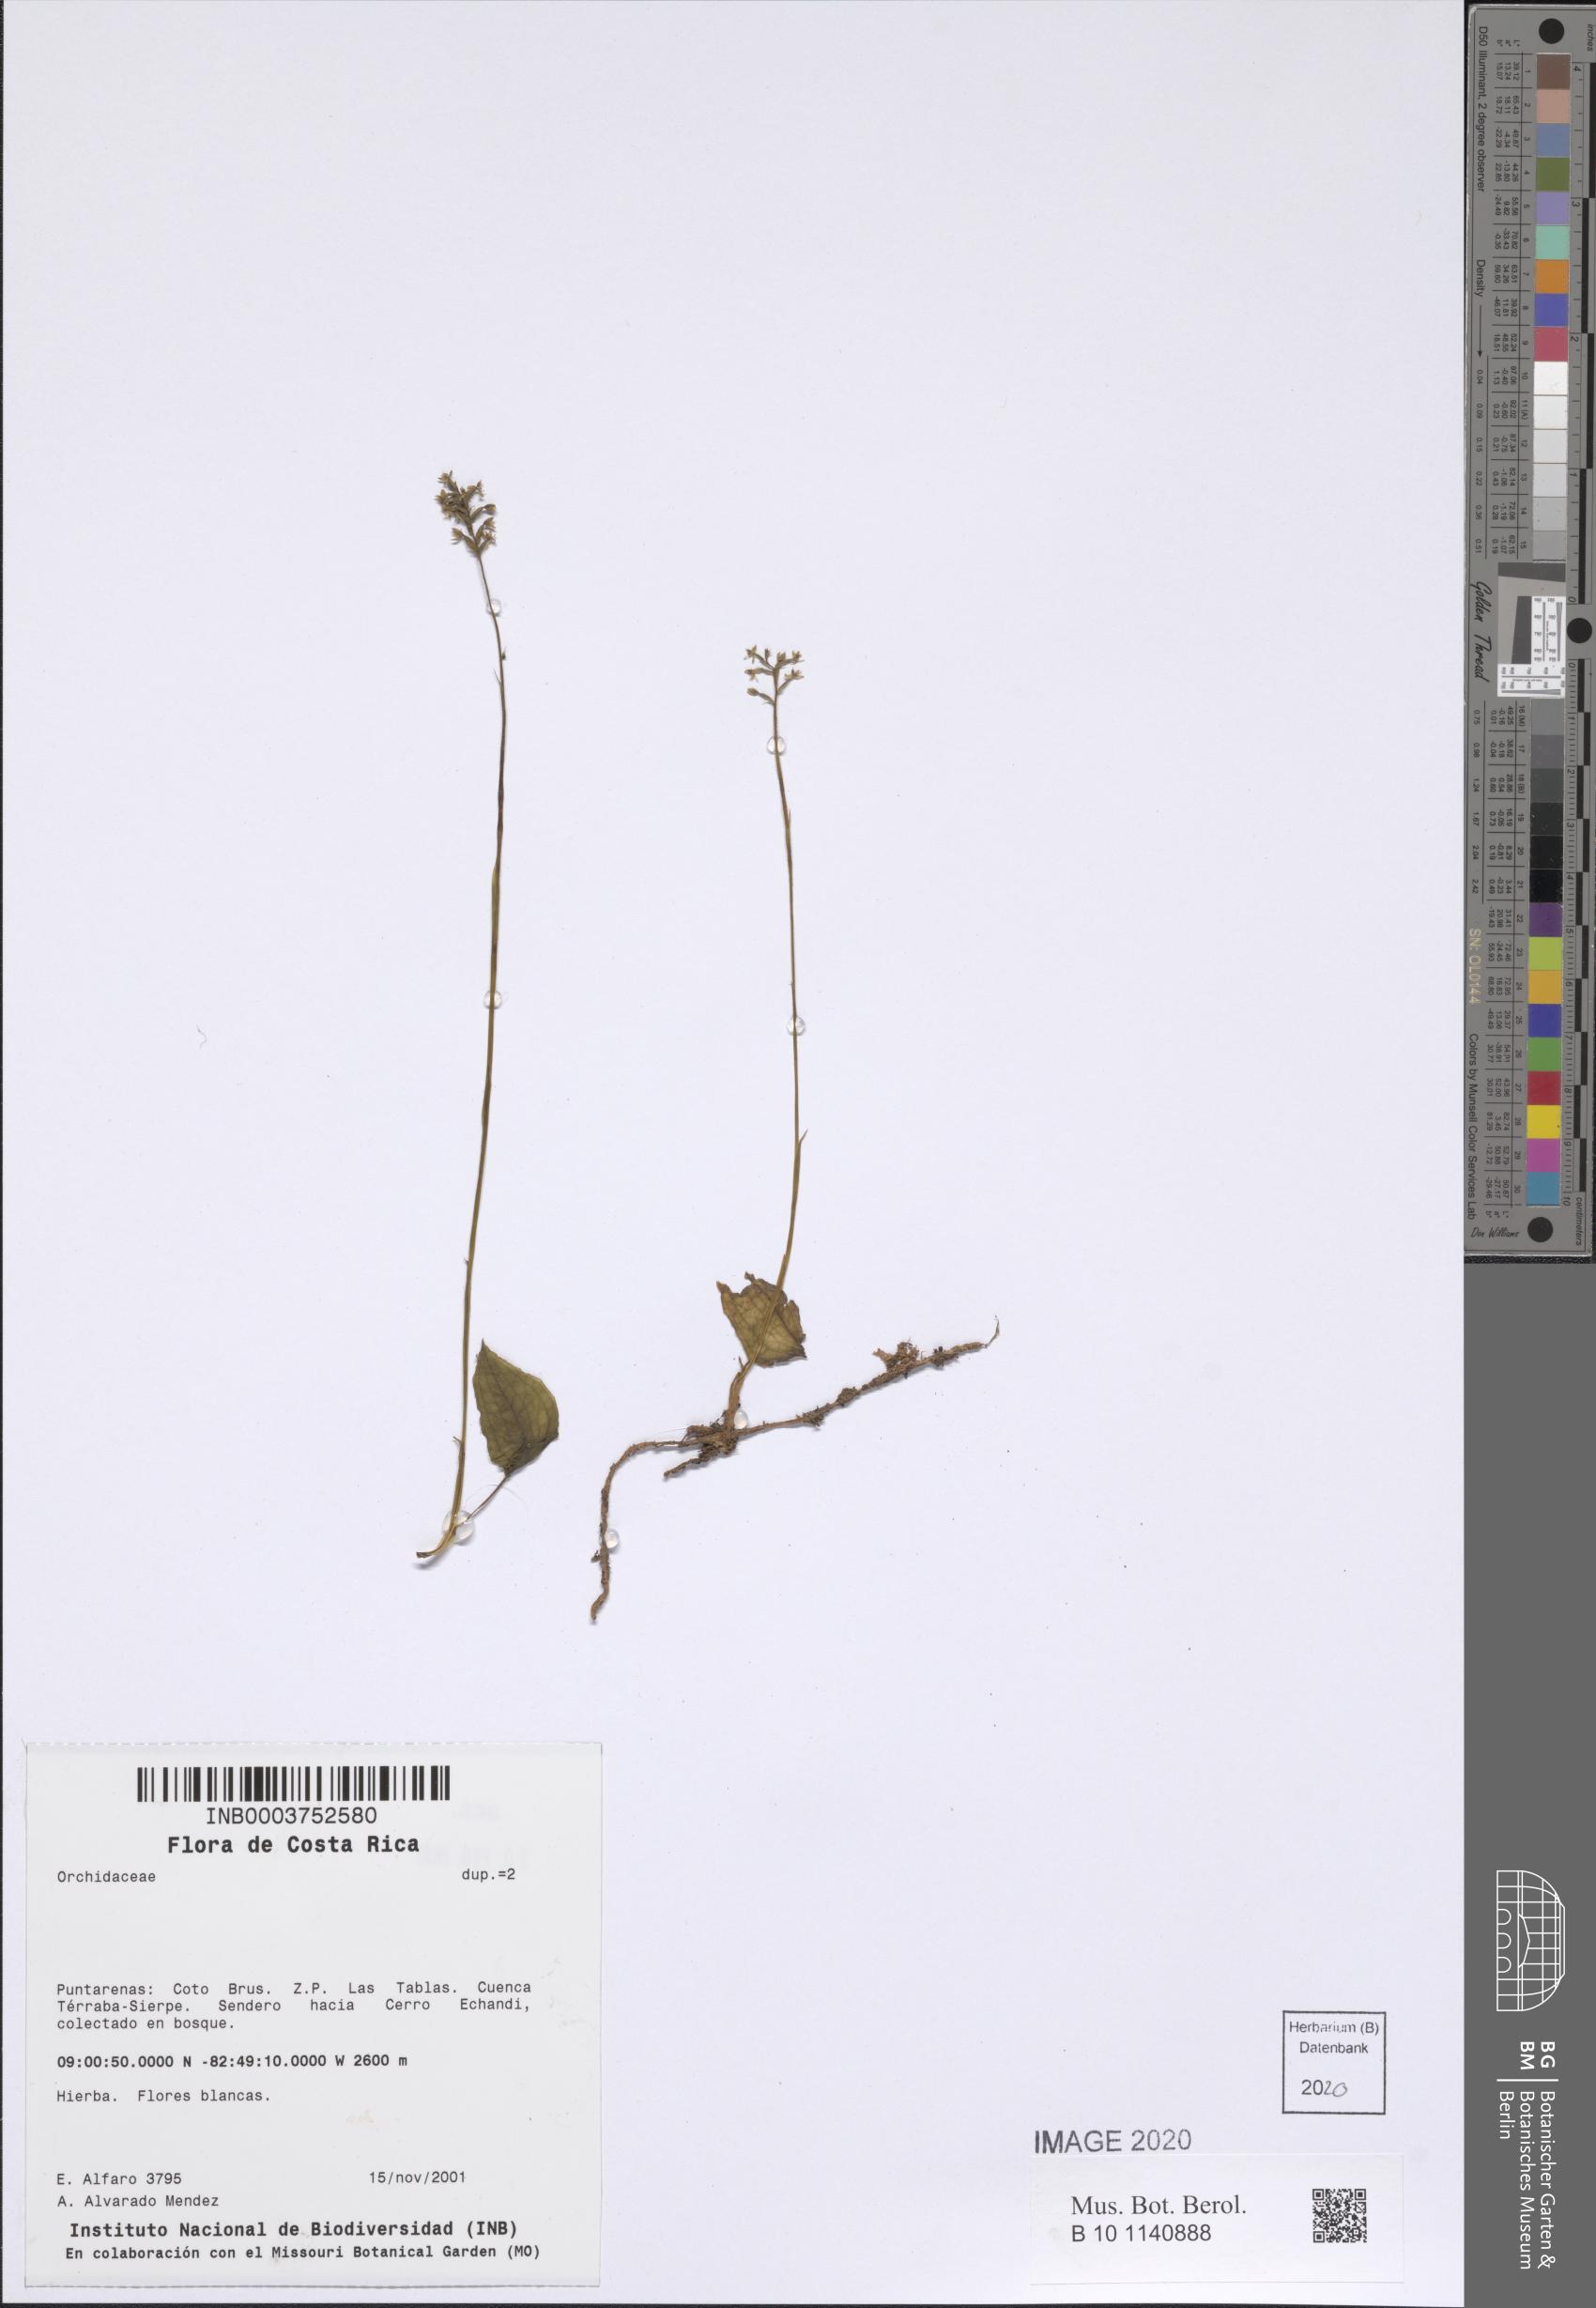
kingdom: Plantae
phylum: Tracheophyta
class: Liliopsida
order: Asparagales
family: Orchidaceae
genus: Ponthieva
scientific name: Ponthieva fertilis
